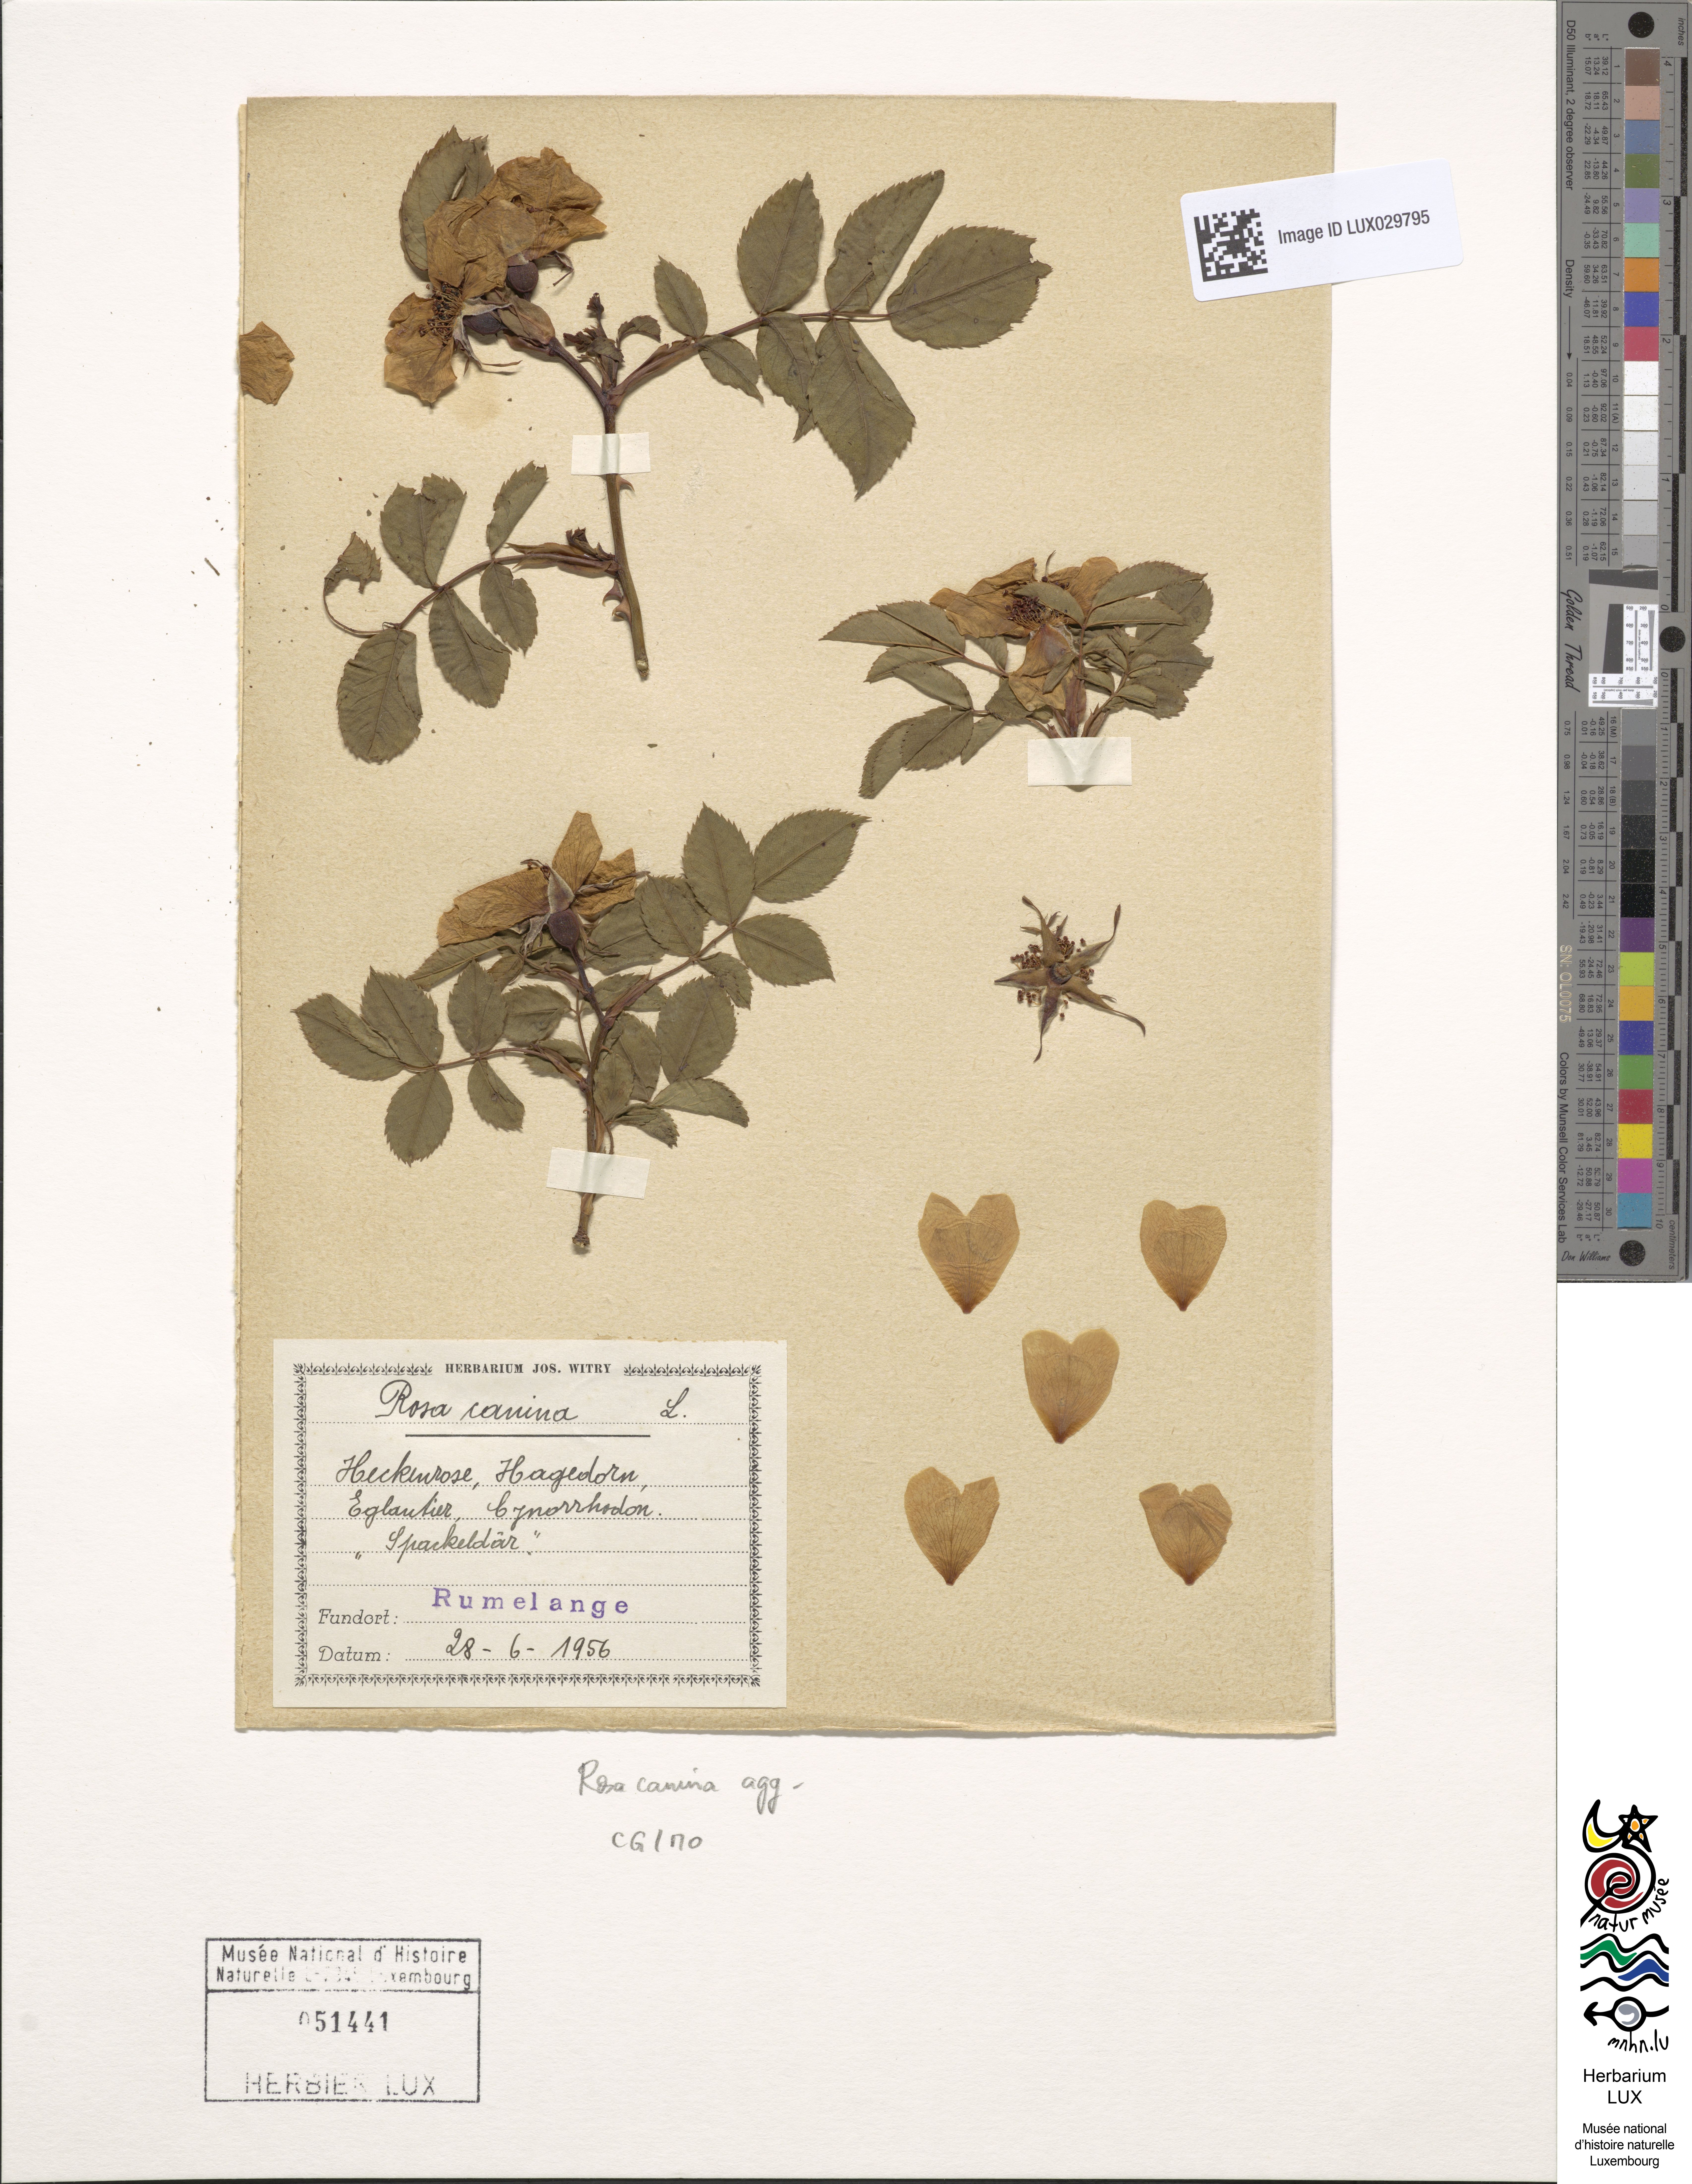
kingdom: Plantae
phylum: Tracheophyta
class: Magnoliopsida
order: Rosales
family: Rosaceae
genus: Rosa
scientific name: Rosa canina
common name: Dog rose
